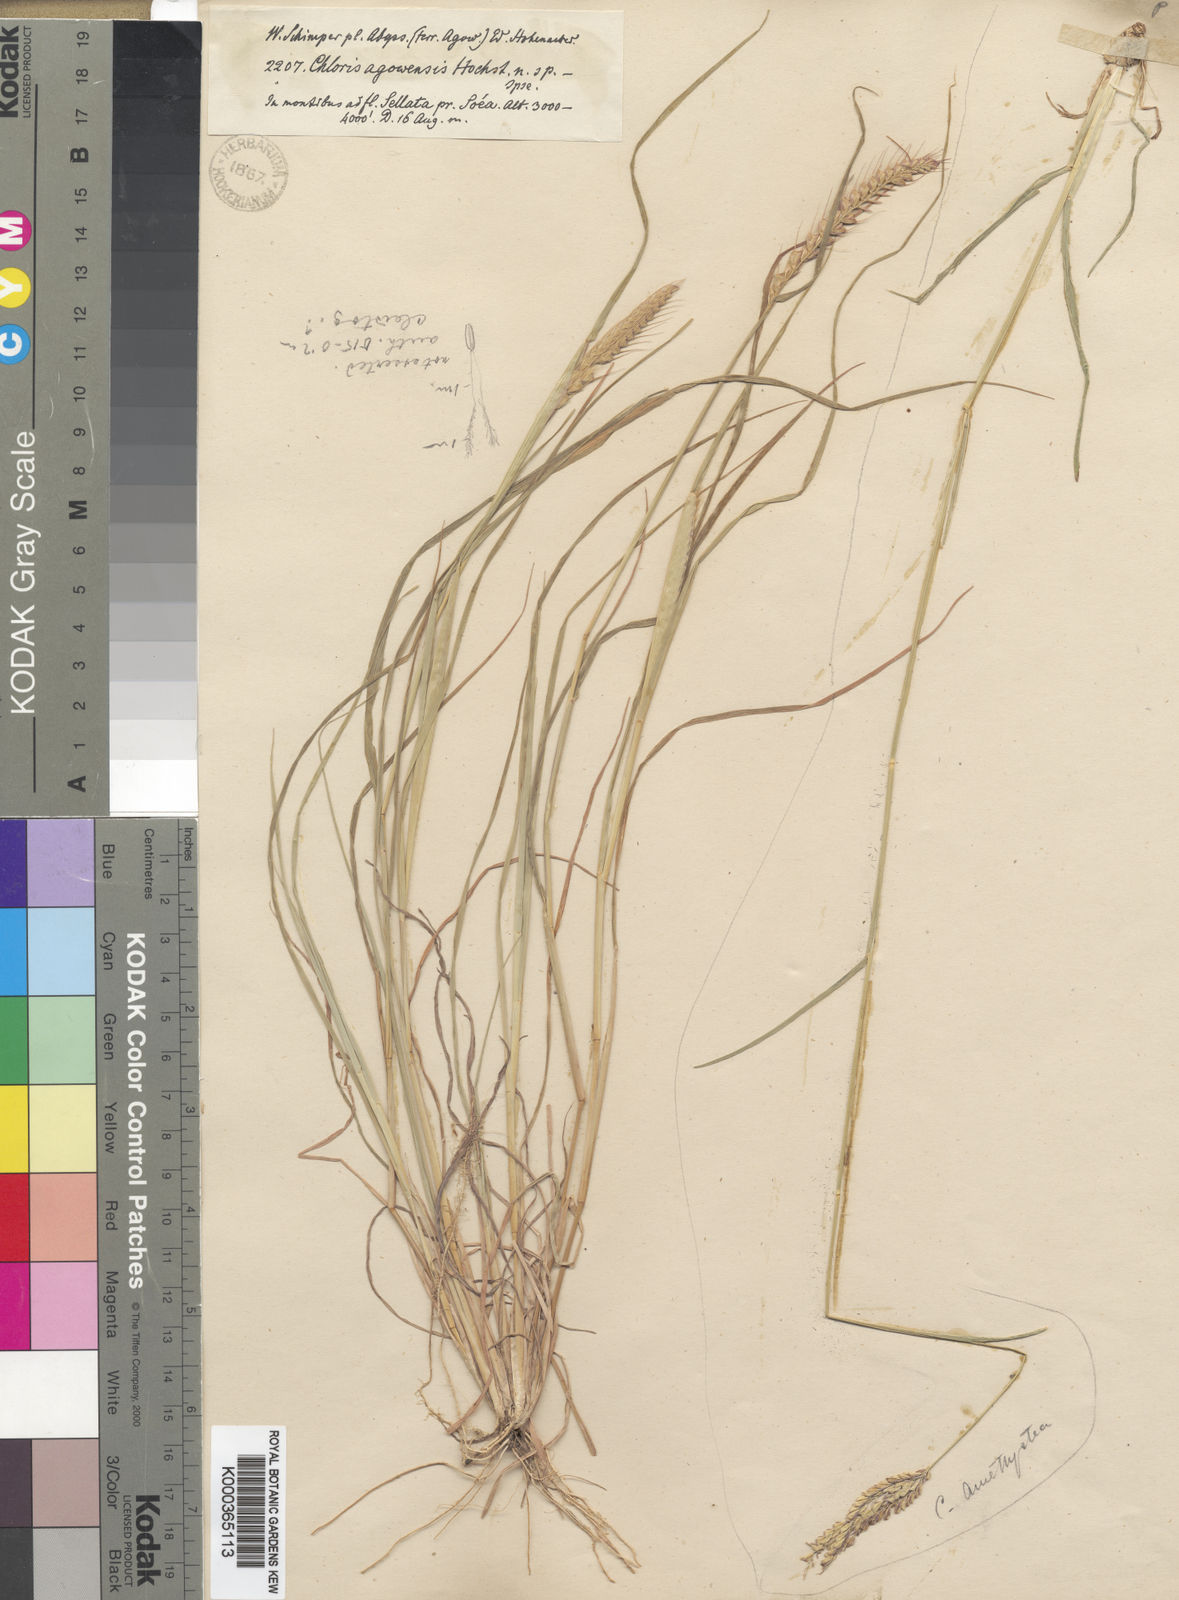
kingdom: Plantae
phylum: Tracheophyta
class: Liliopsida
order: Poales
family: Poaceae
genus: Tetrapogon
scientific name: Tetrapogon tenellus
